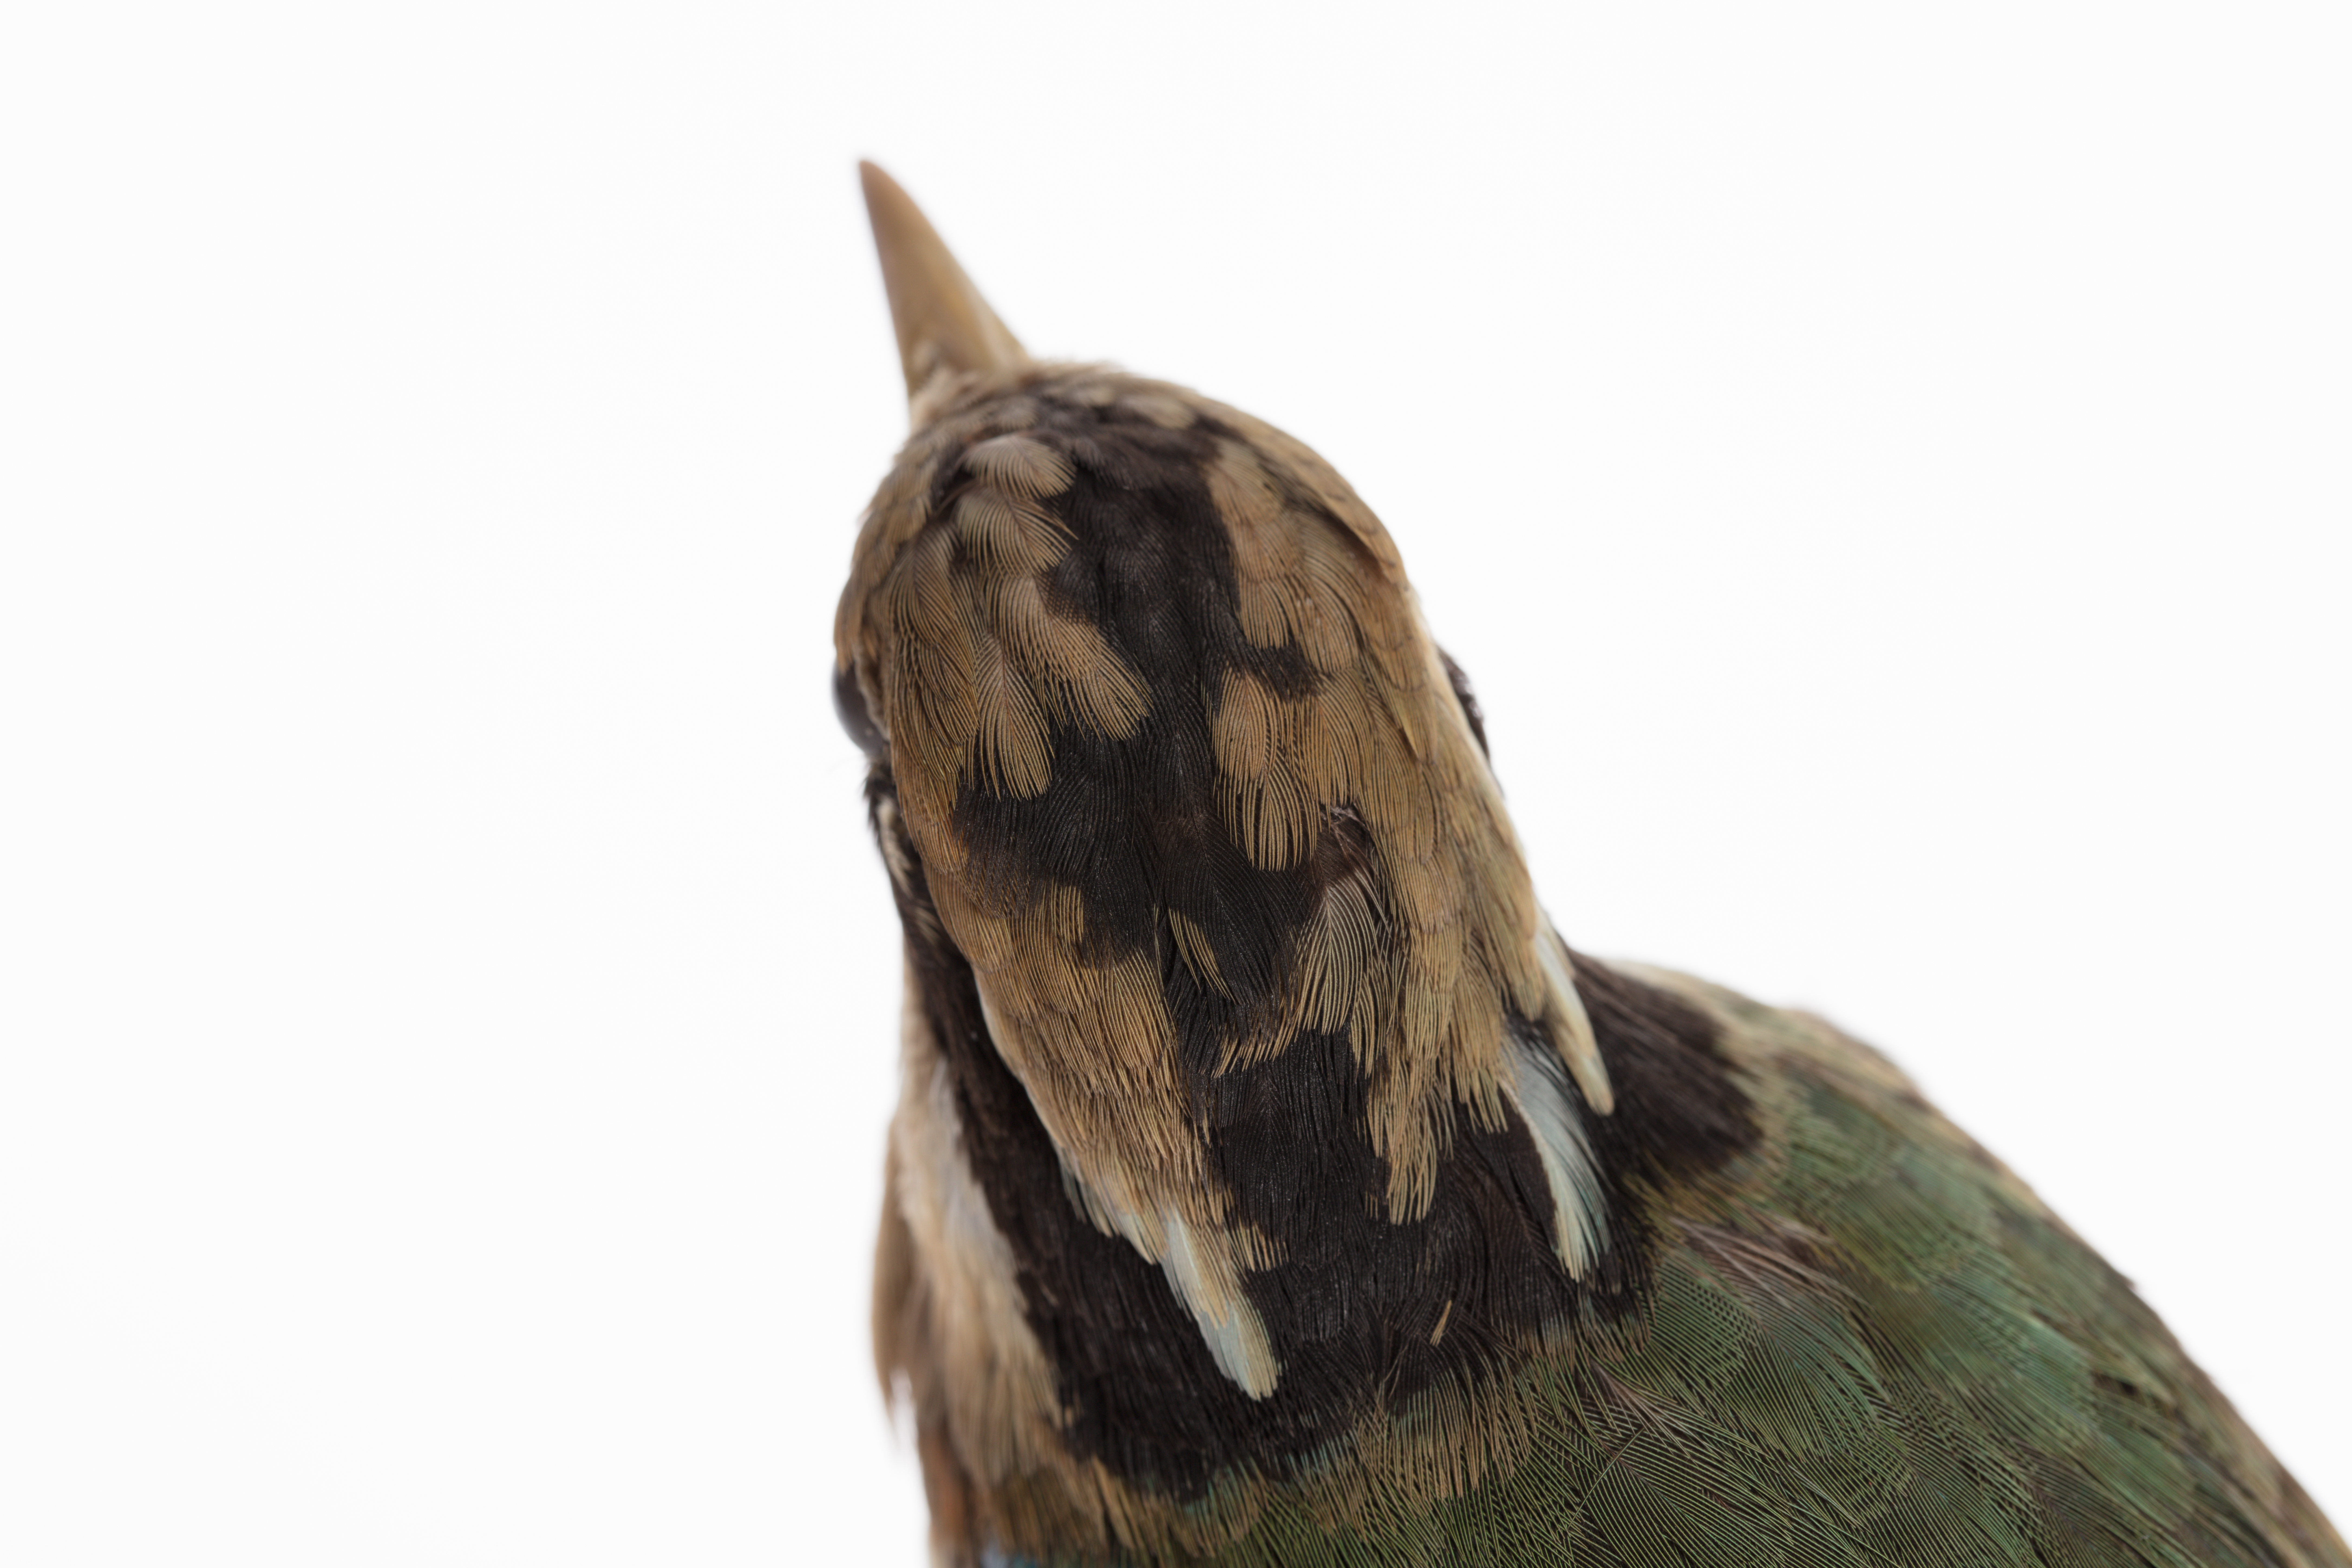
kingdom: Animalia
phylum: Chordata
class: Aves
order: Passeriformes
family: Pittidae
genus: Pitta
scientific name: Pitta brachyura
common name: Indian pitta
